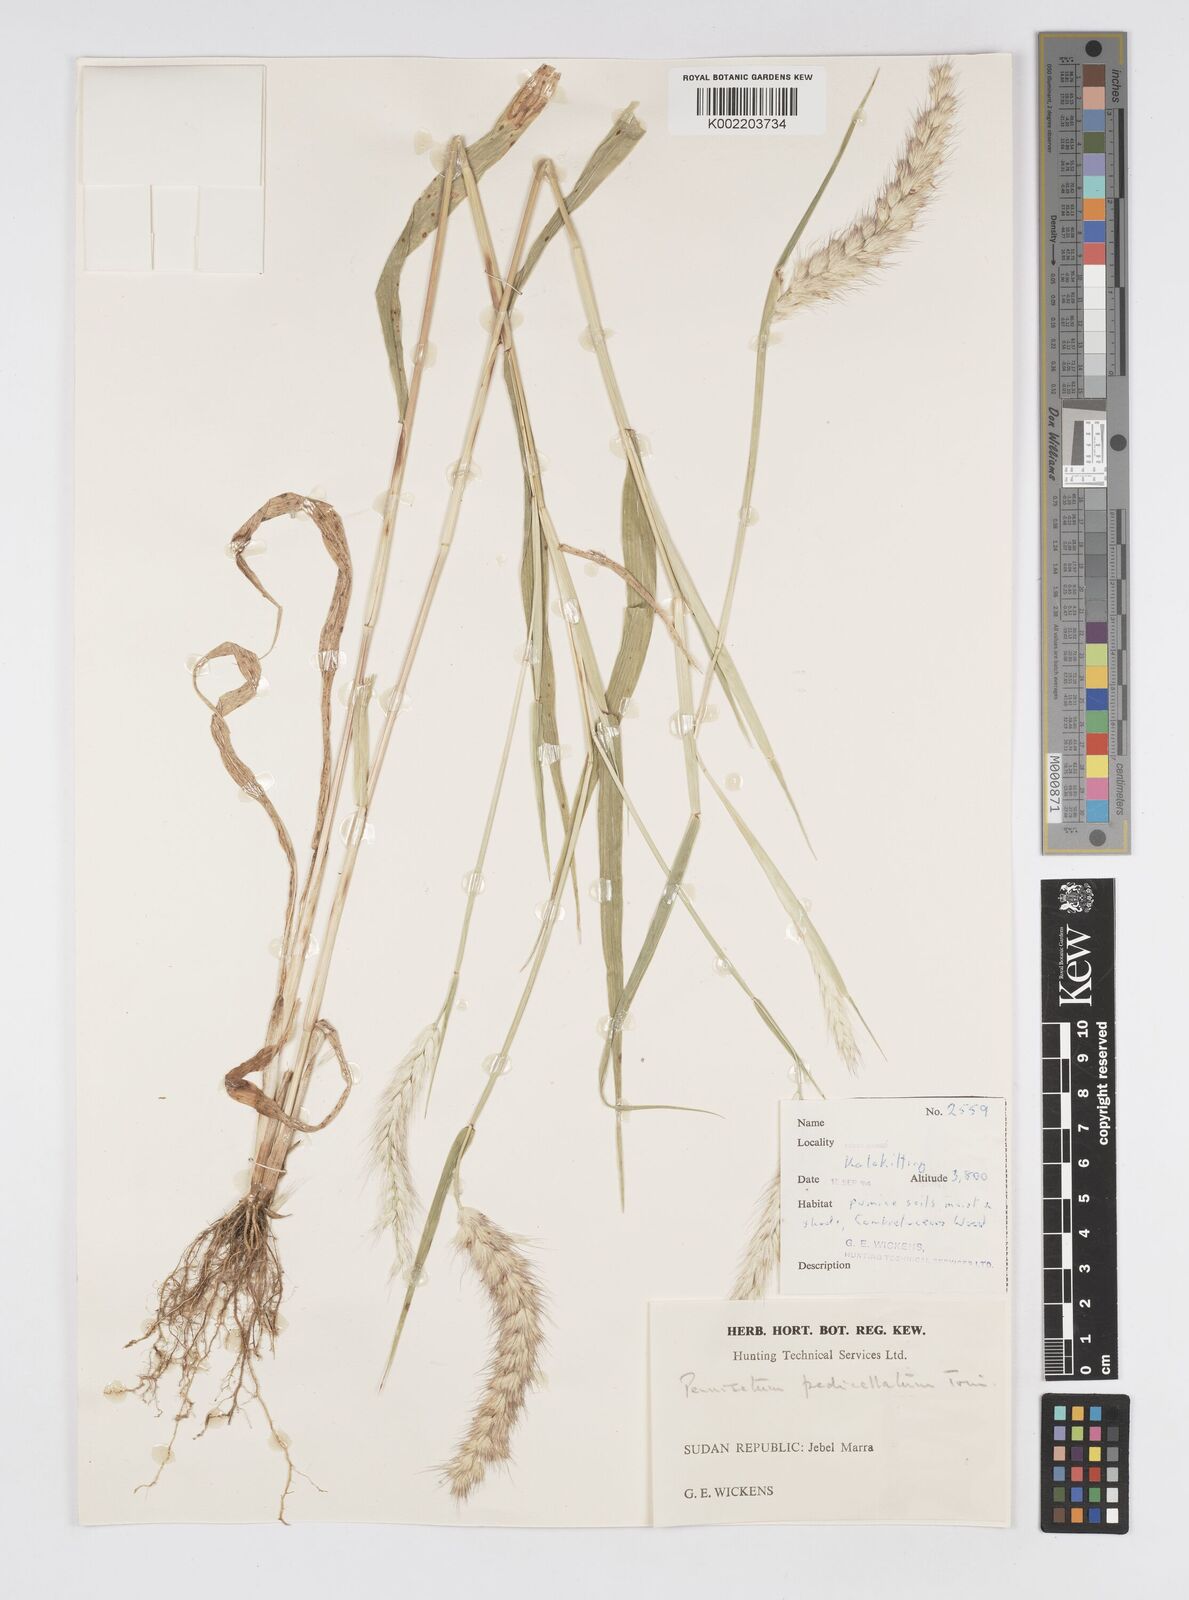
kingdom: Plantae
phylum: Tracheophyta
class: Liliopsida
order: Poales
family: Poaceae
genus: Cenchrus
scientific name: Cenchrus pedicellatus
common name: Hairy fountain grass
